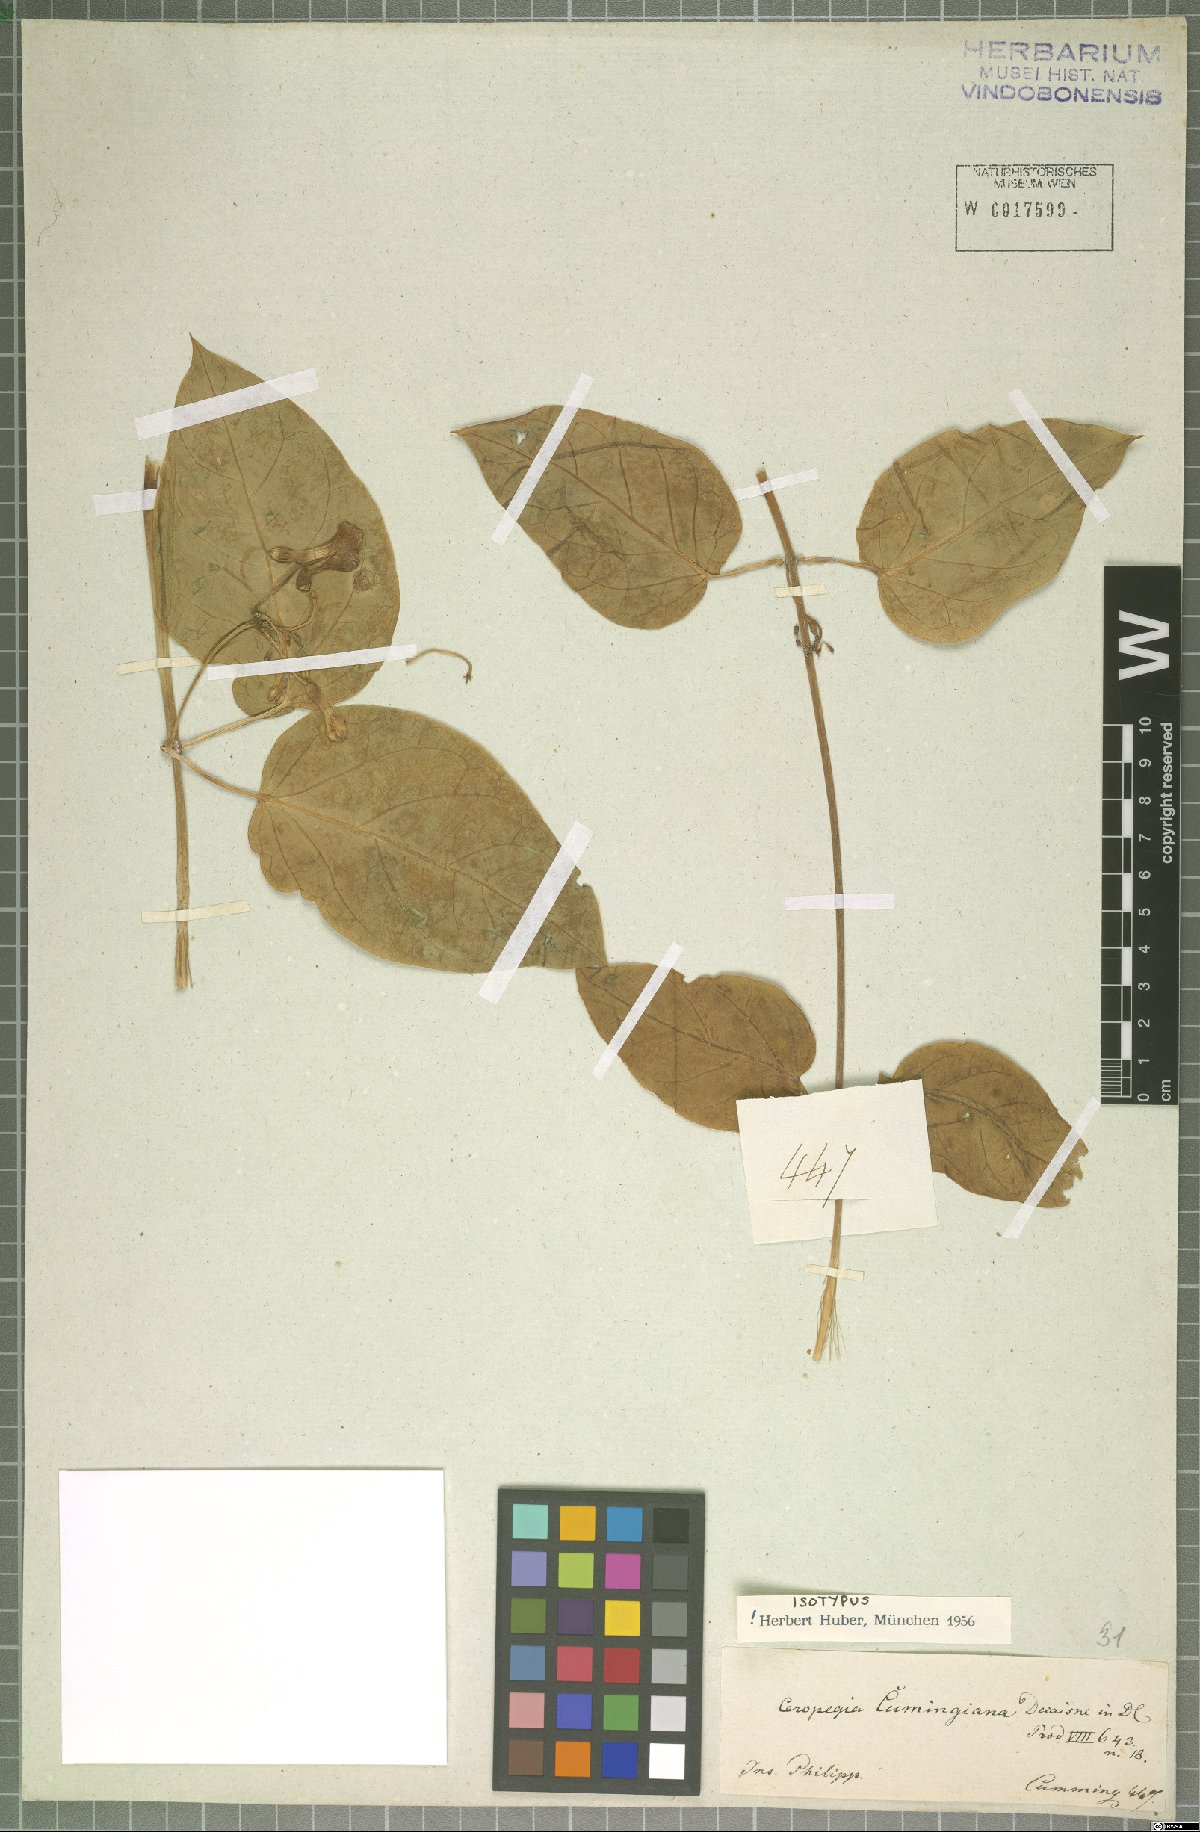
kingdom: Plantae
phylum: Tracheophyta
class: Magnoliopsida
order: Gentianales
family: Apocynaceae
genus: Ceropegia
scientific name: Ceropegia cumingiana
